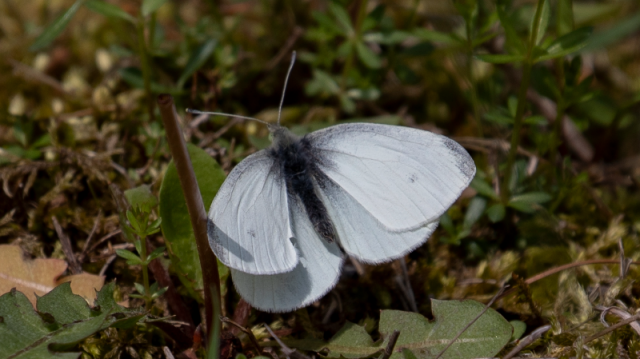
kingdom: Animalia
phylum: Arthropoda
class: Insecta
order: Lepidoptera
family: Pieridae
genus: Pieris
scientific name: Pieris rapae
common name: Cabbage White
